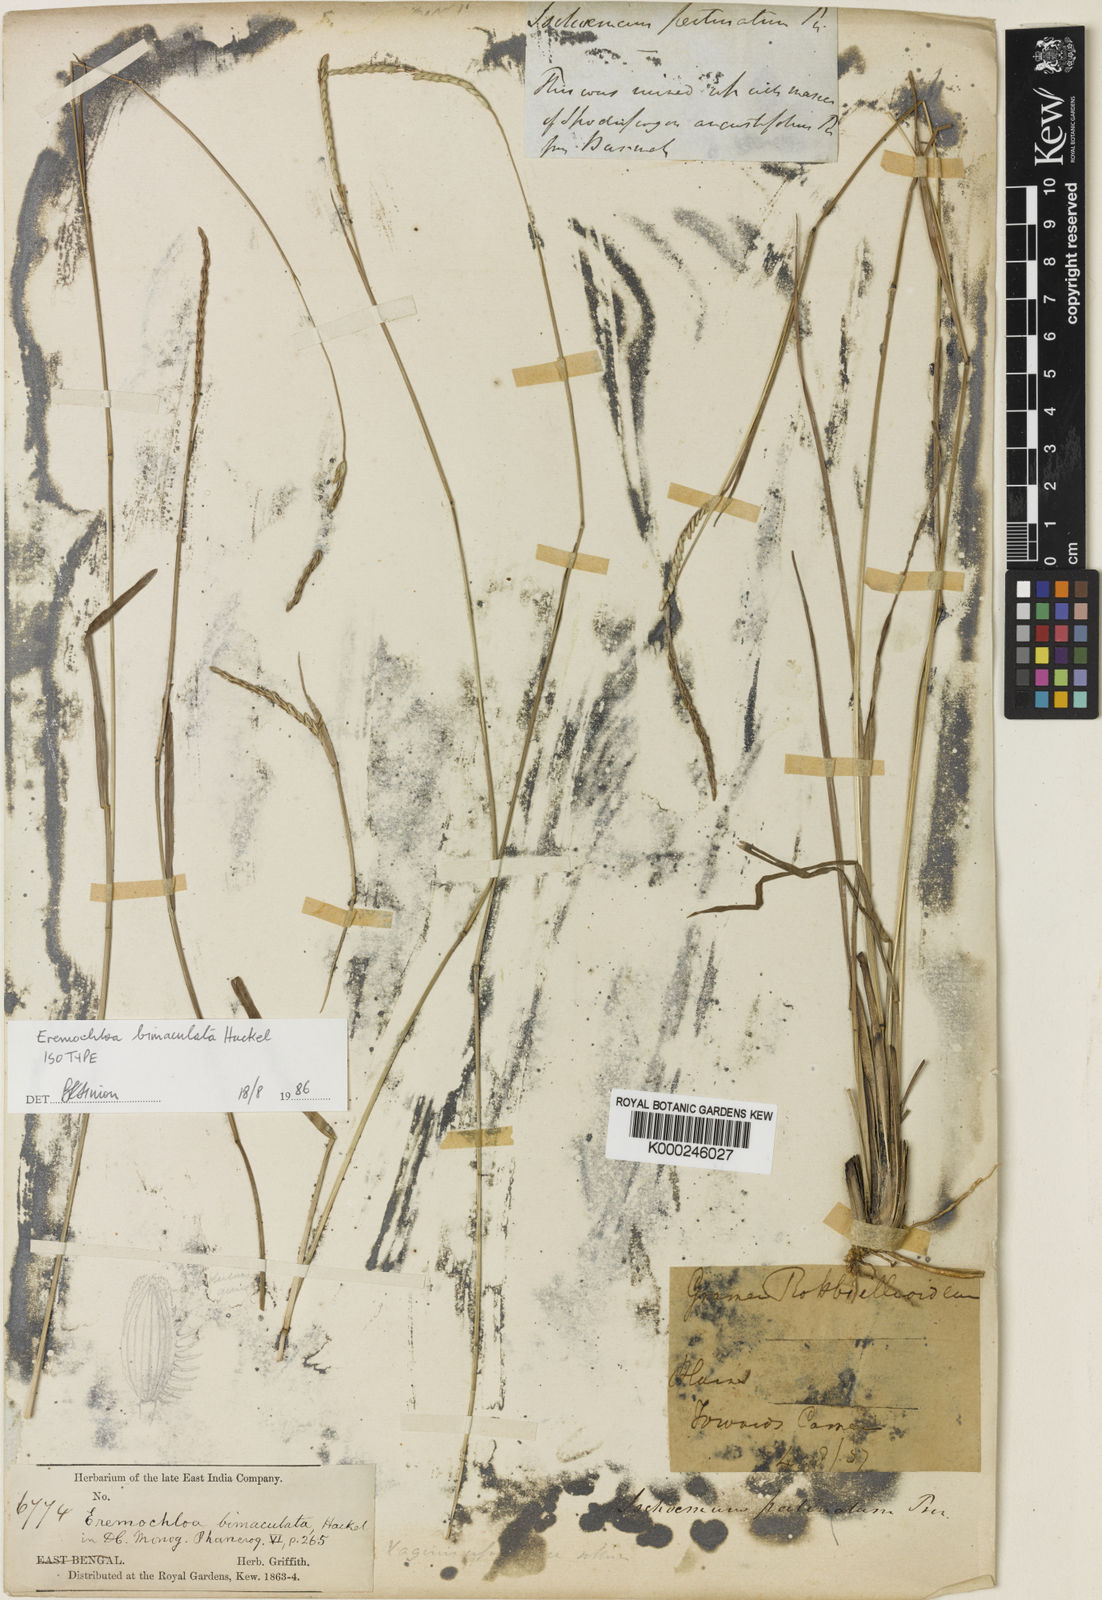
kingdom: Plantae
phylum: Tracheophyta
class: Liliopsida
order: Poales
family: Poaceae
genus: Eremochloa
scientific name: Eremochloa bimaculata
